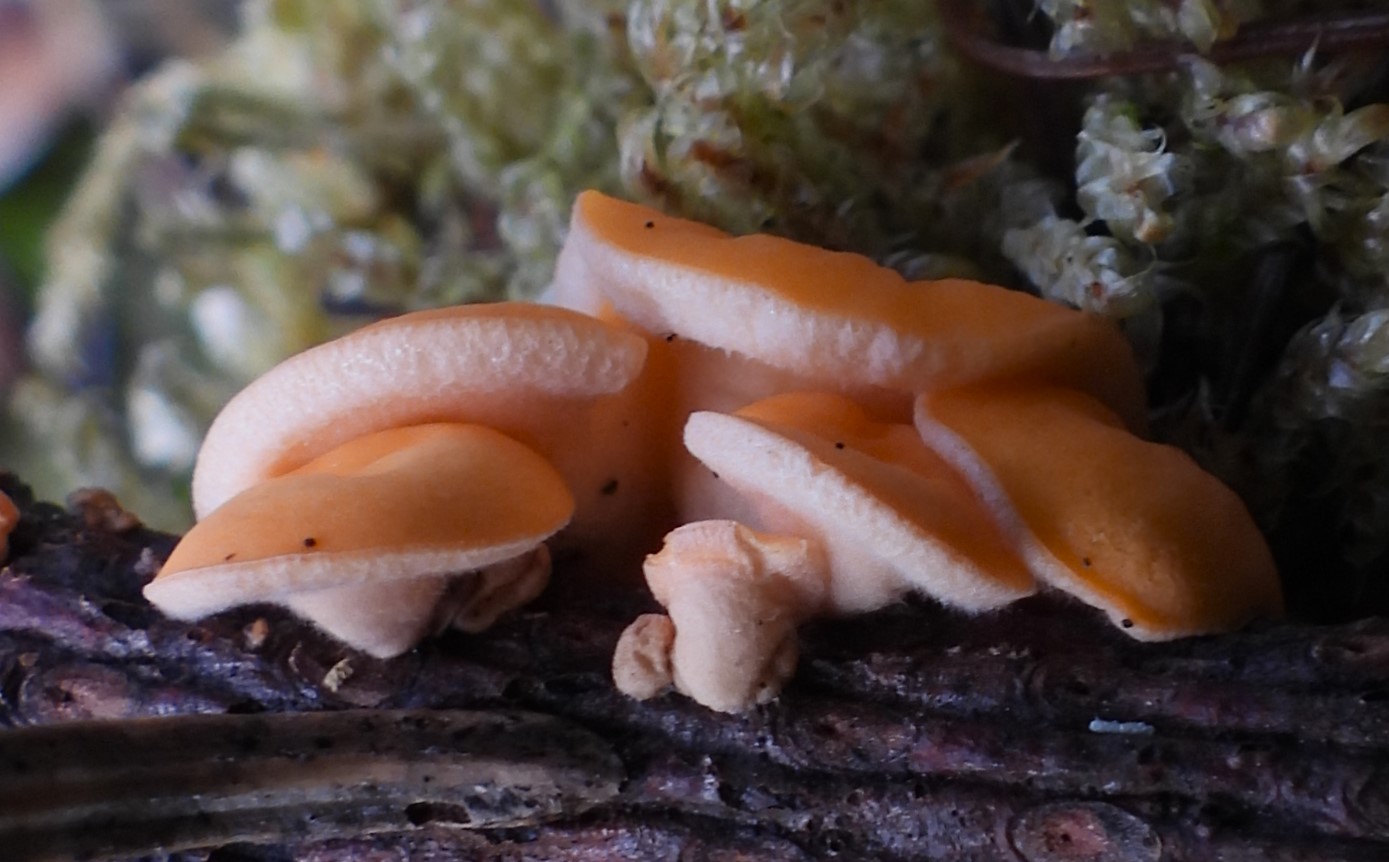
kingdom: Fungi
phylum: Ascomycota
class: Pezizomycetes
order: Pezizales
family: Sarcoscyphaceae
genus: Pithya
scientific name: Pithya vulgaris
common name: stor dukatbæger
